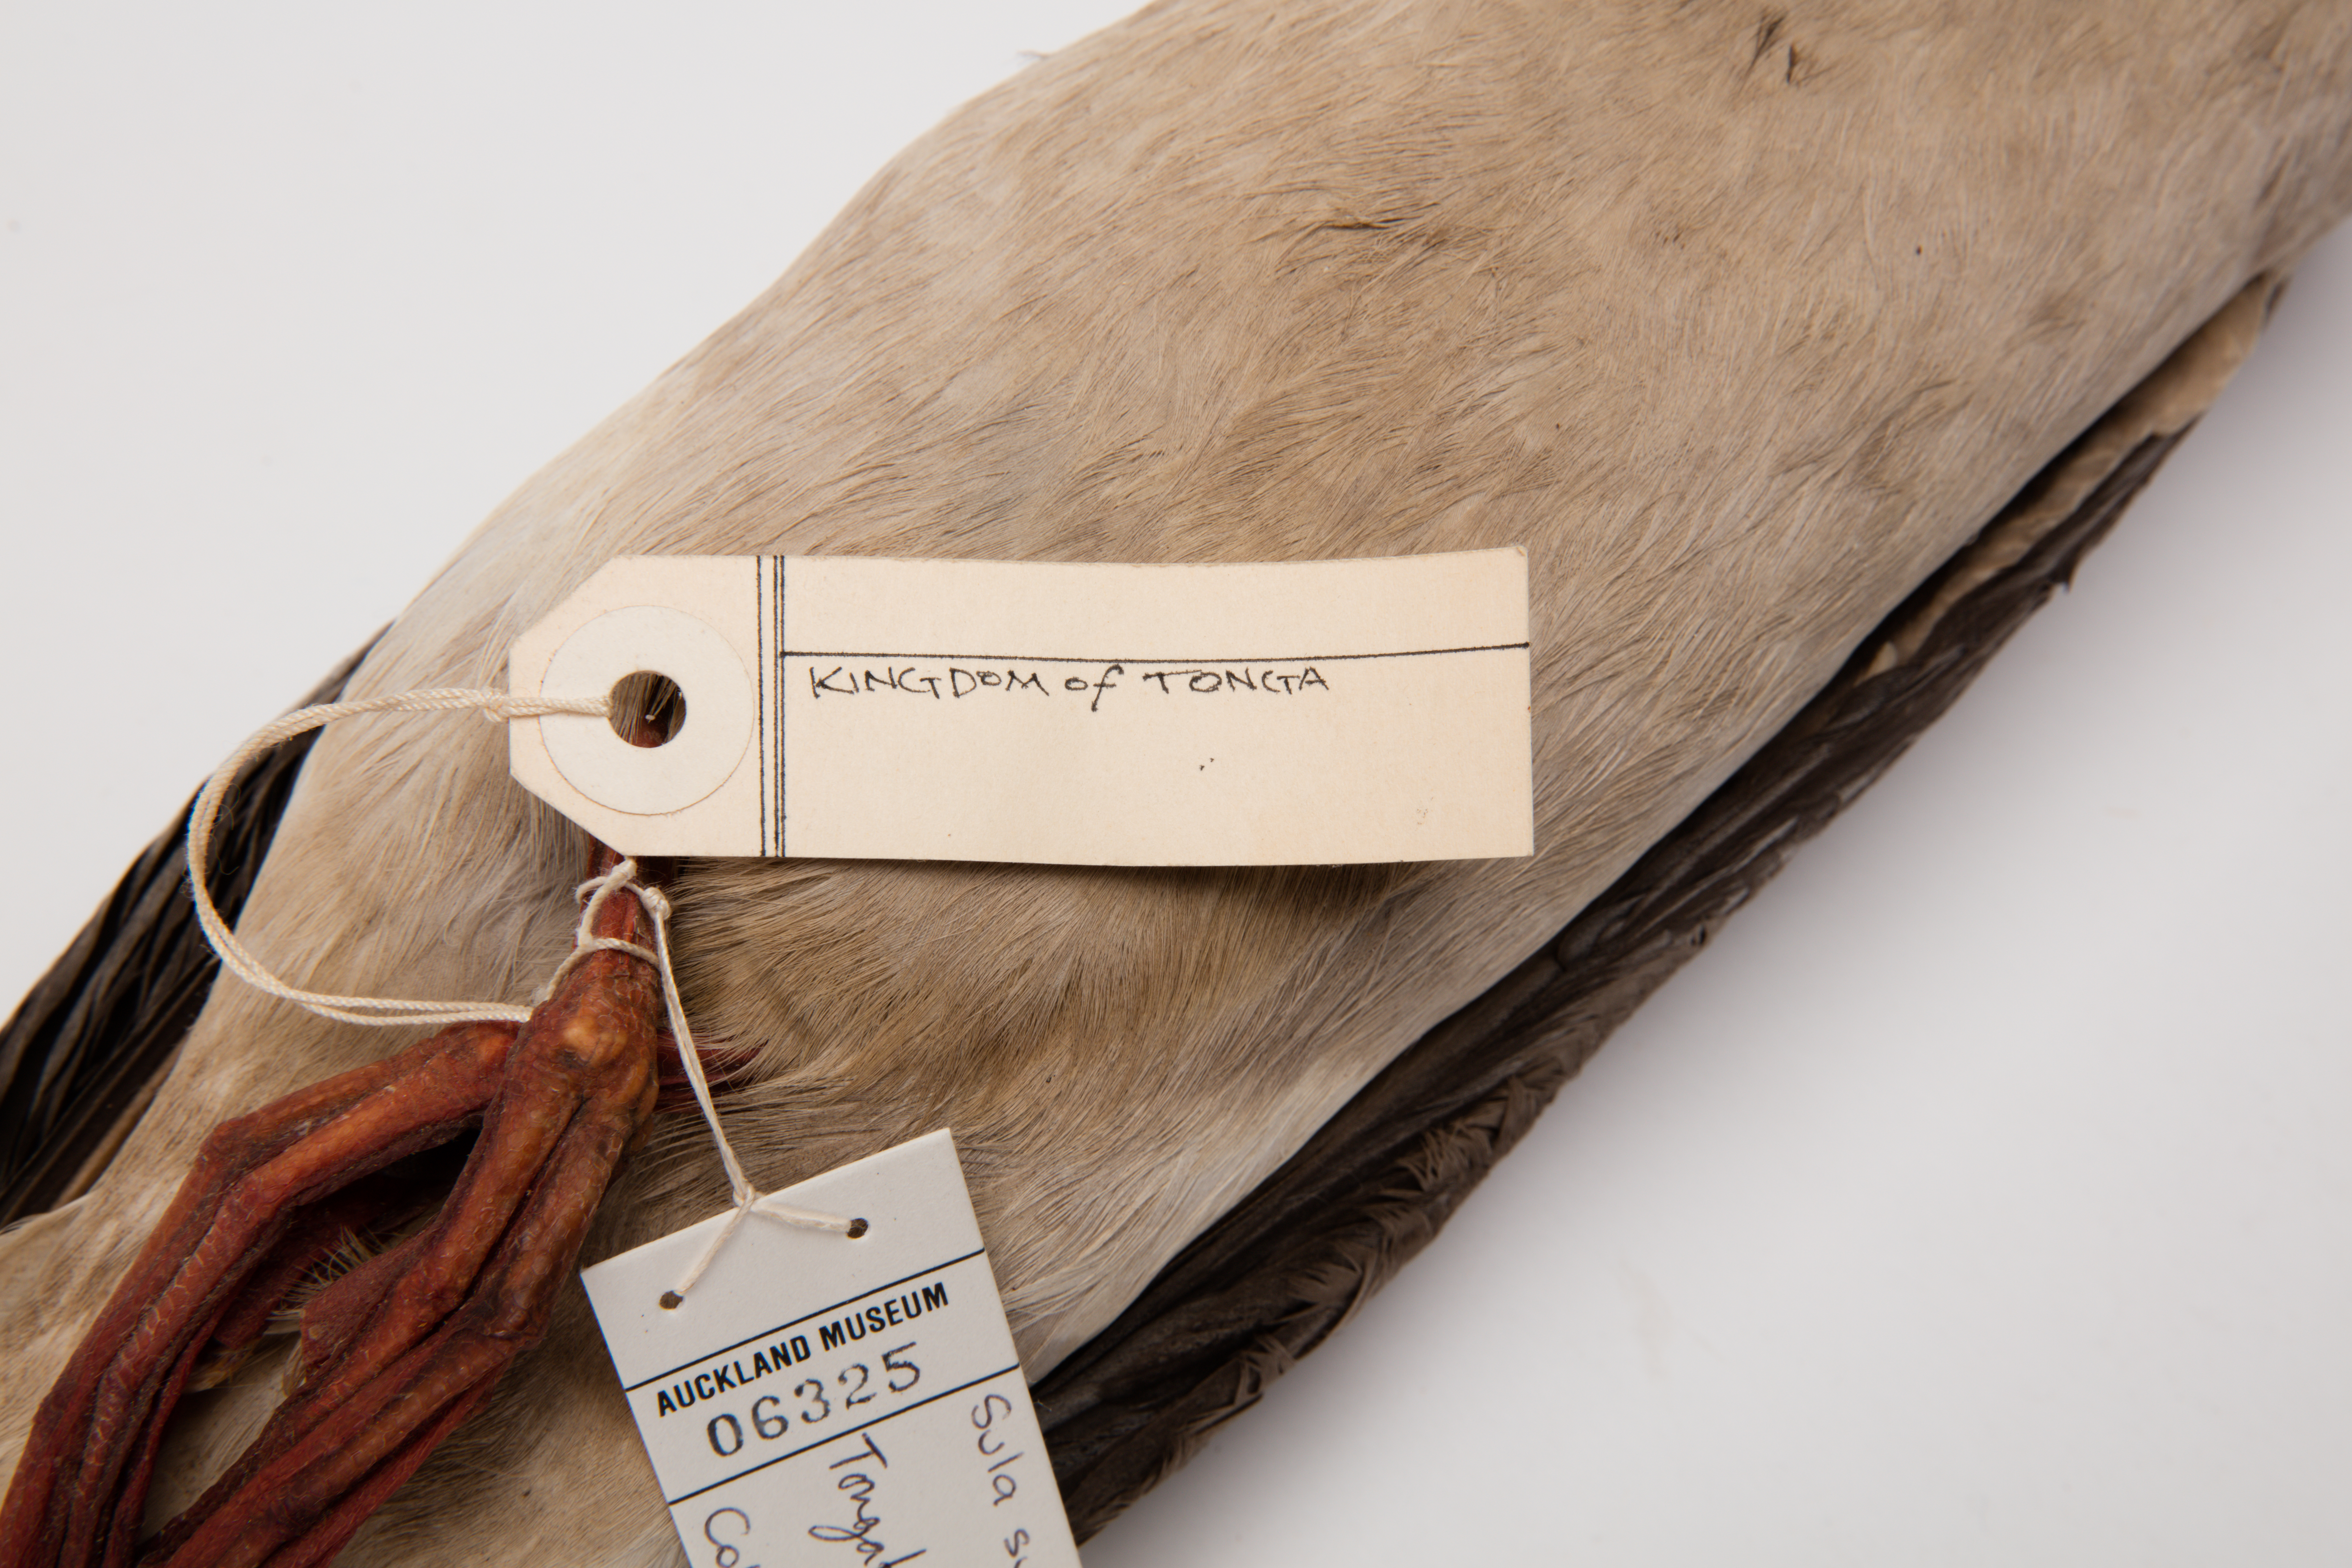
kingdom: Animalia
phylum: Chordata
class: Aves
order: Suliformes
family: Sulidae
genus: Sula
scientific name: Sula sula
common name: Red-footed booby
